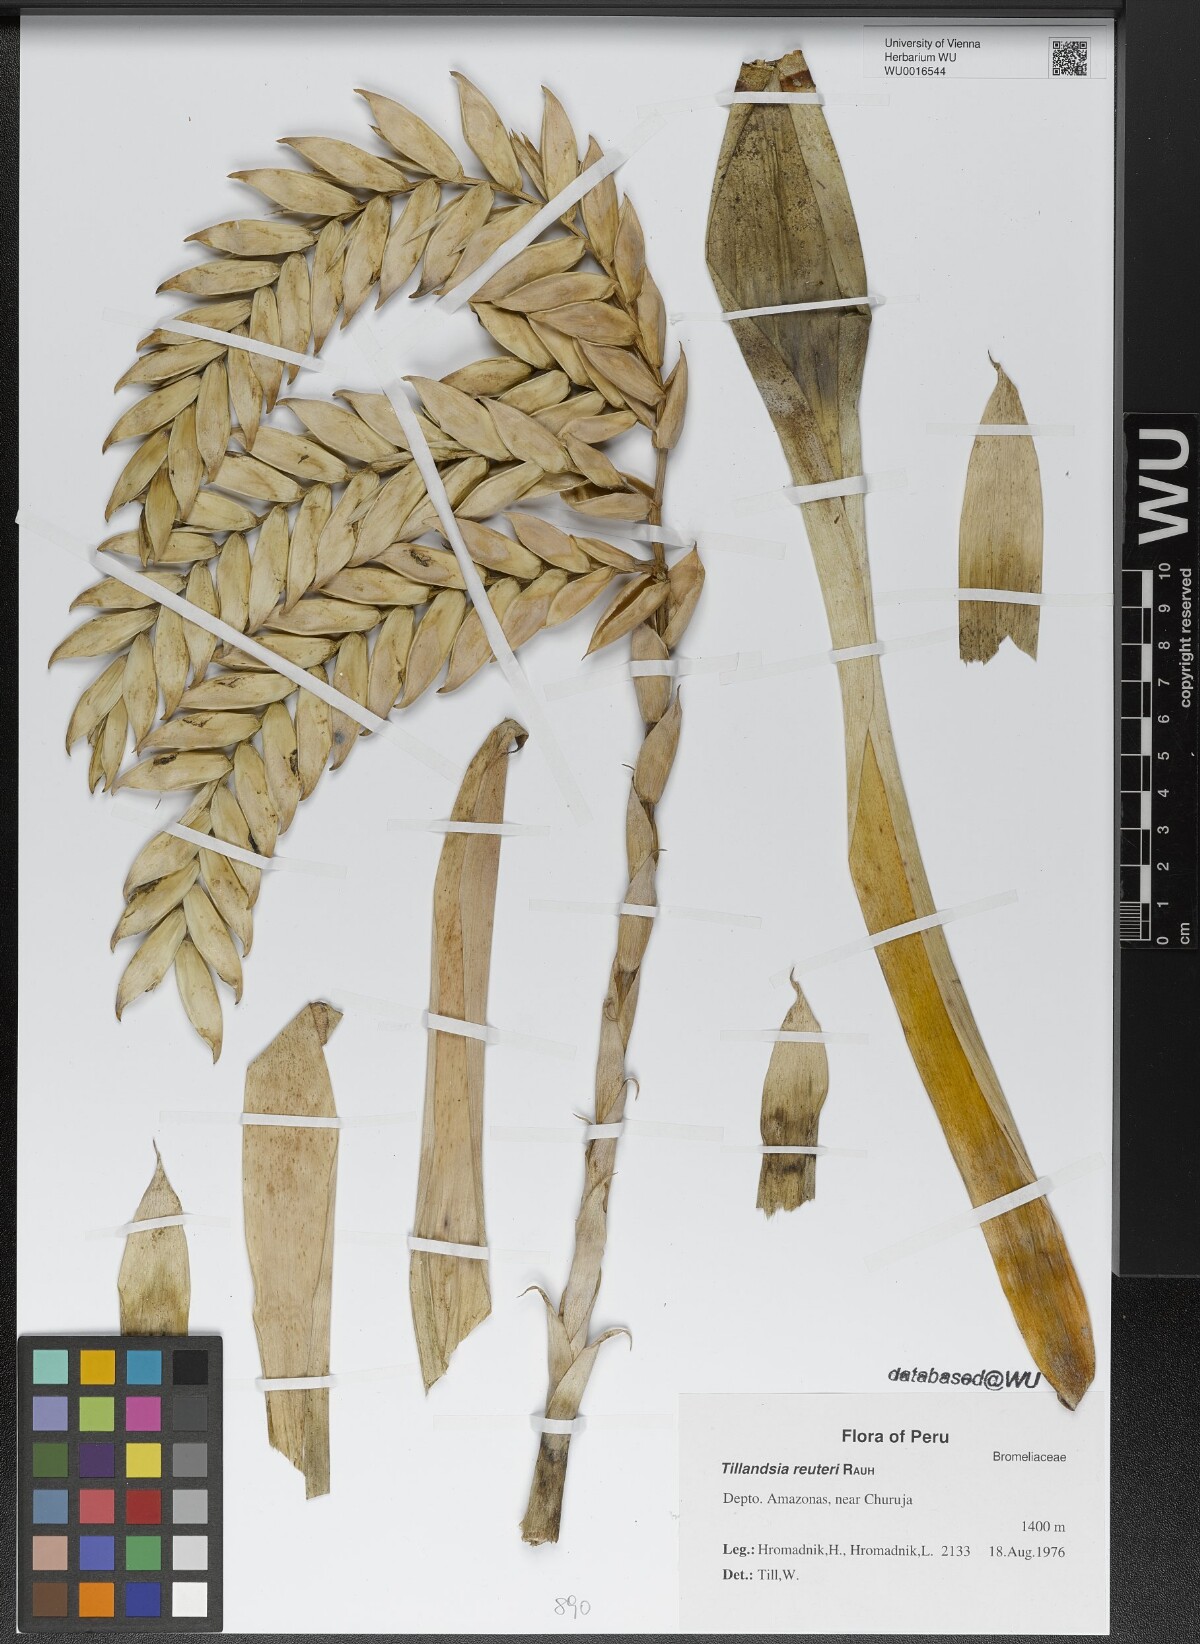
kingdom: Plantae
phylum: Tracheophyta
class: Liliopsida
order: Poales
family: Bromeliaceae
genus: Tillandsia
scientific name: Tillandsia reuteri
